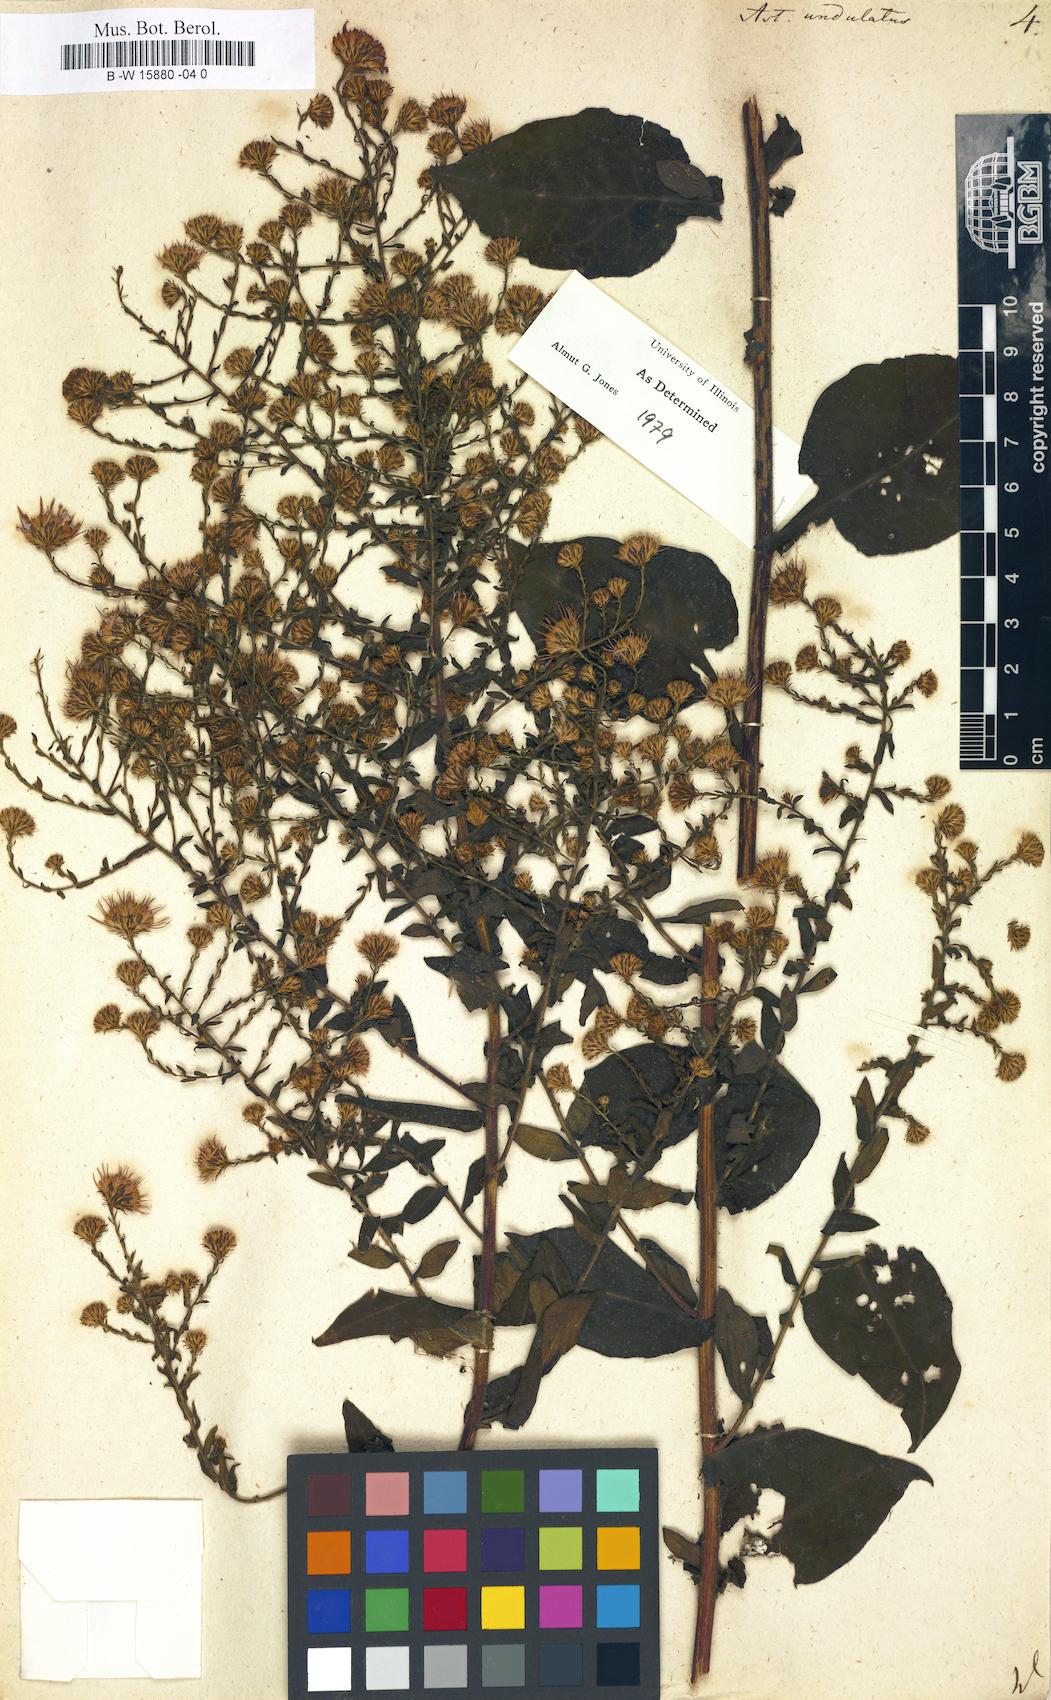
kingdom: Plantae
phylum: Tracheophyta
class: Magnoliopsida
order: Asterales
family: Asteraceae
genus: Symphyotrichum
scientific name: Symphyotrichum undulatum
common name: Clasping heart-leaf aster
